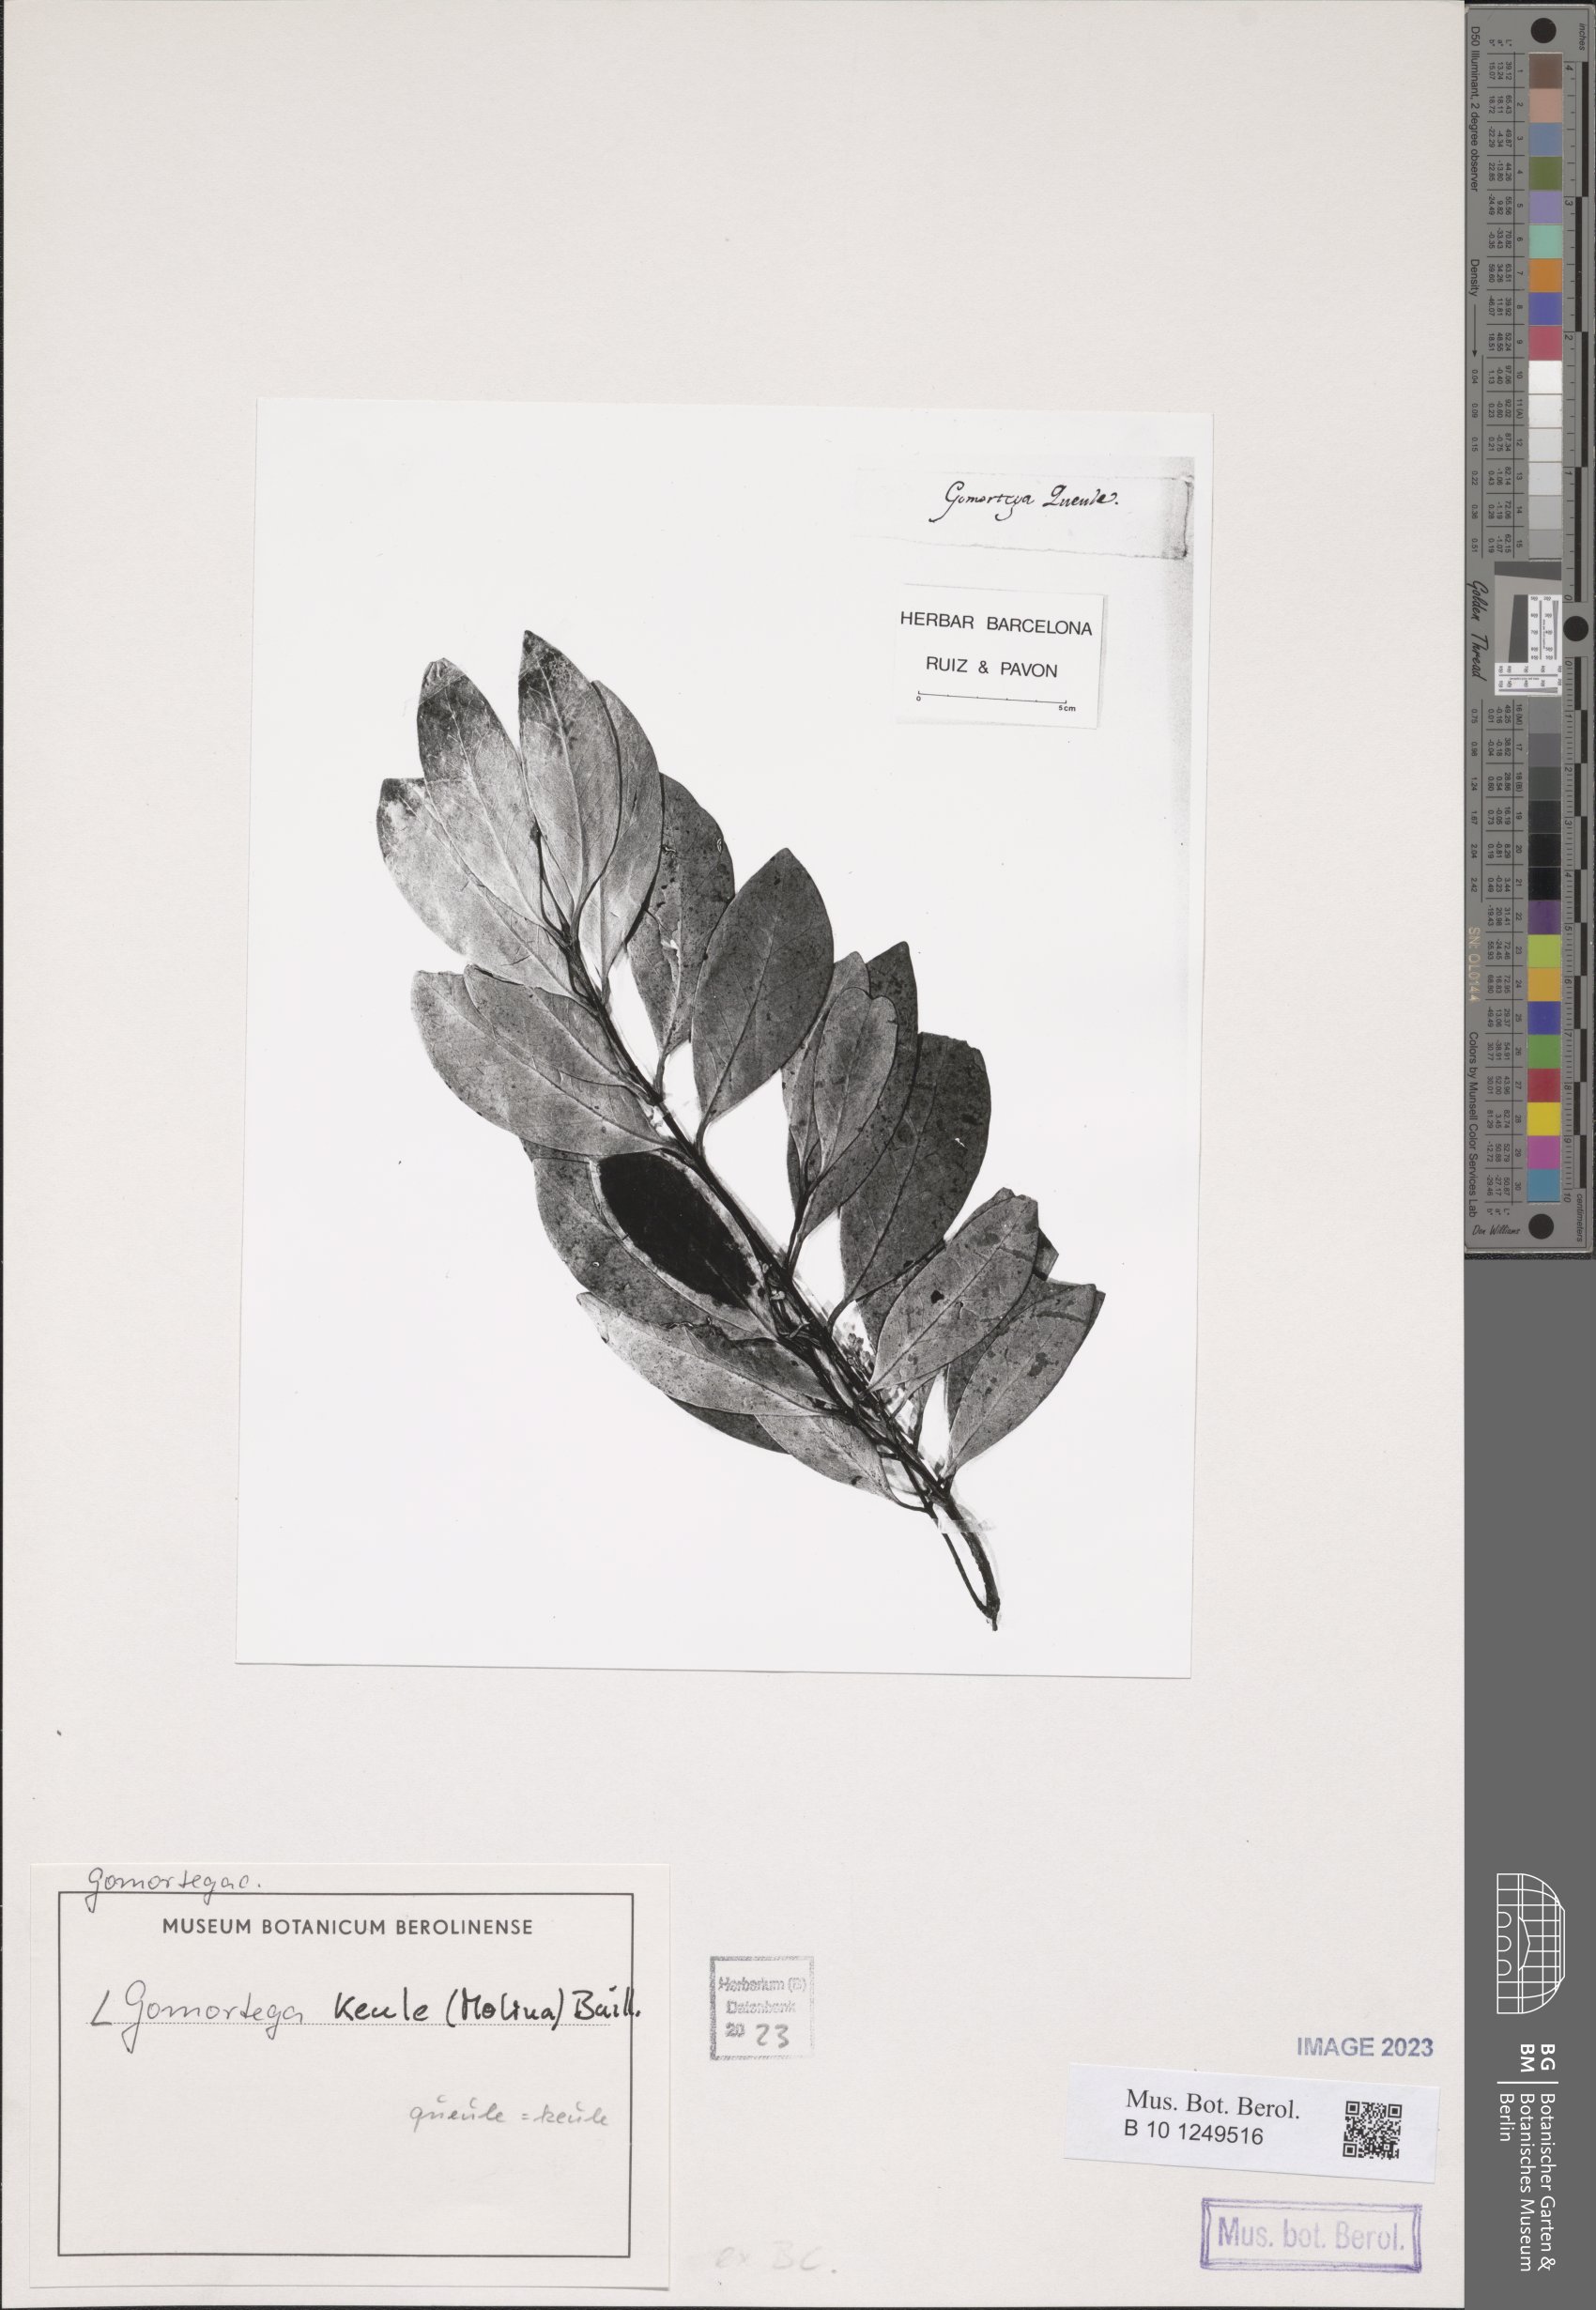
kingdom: Plantae
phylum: Tracheophyta
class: Magnoliopsida
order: Laurales
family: Gomortegaceae
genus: Gomortega
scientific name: Gomortega keule
